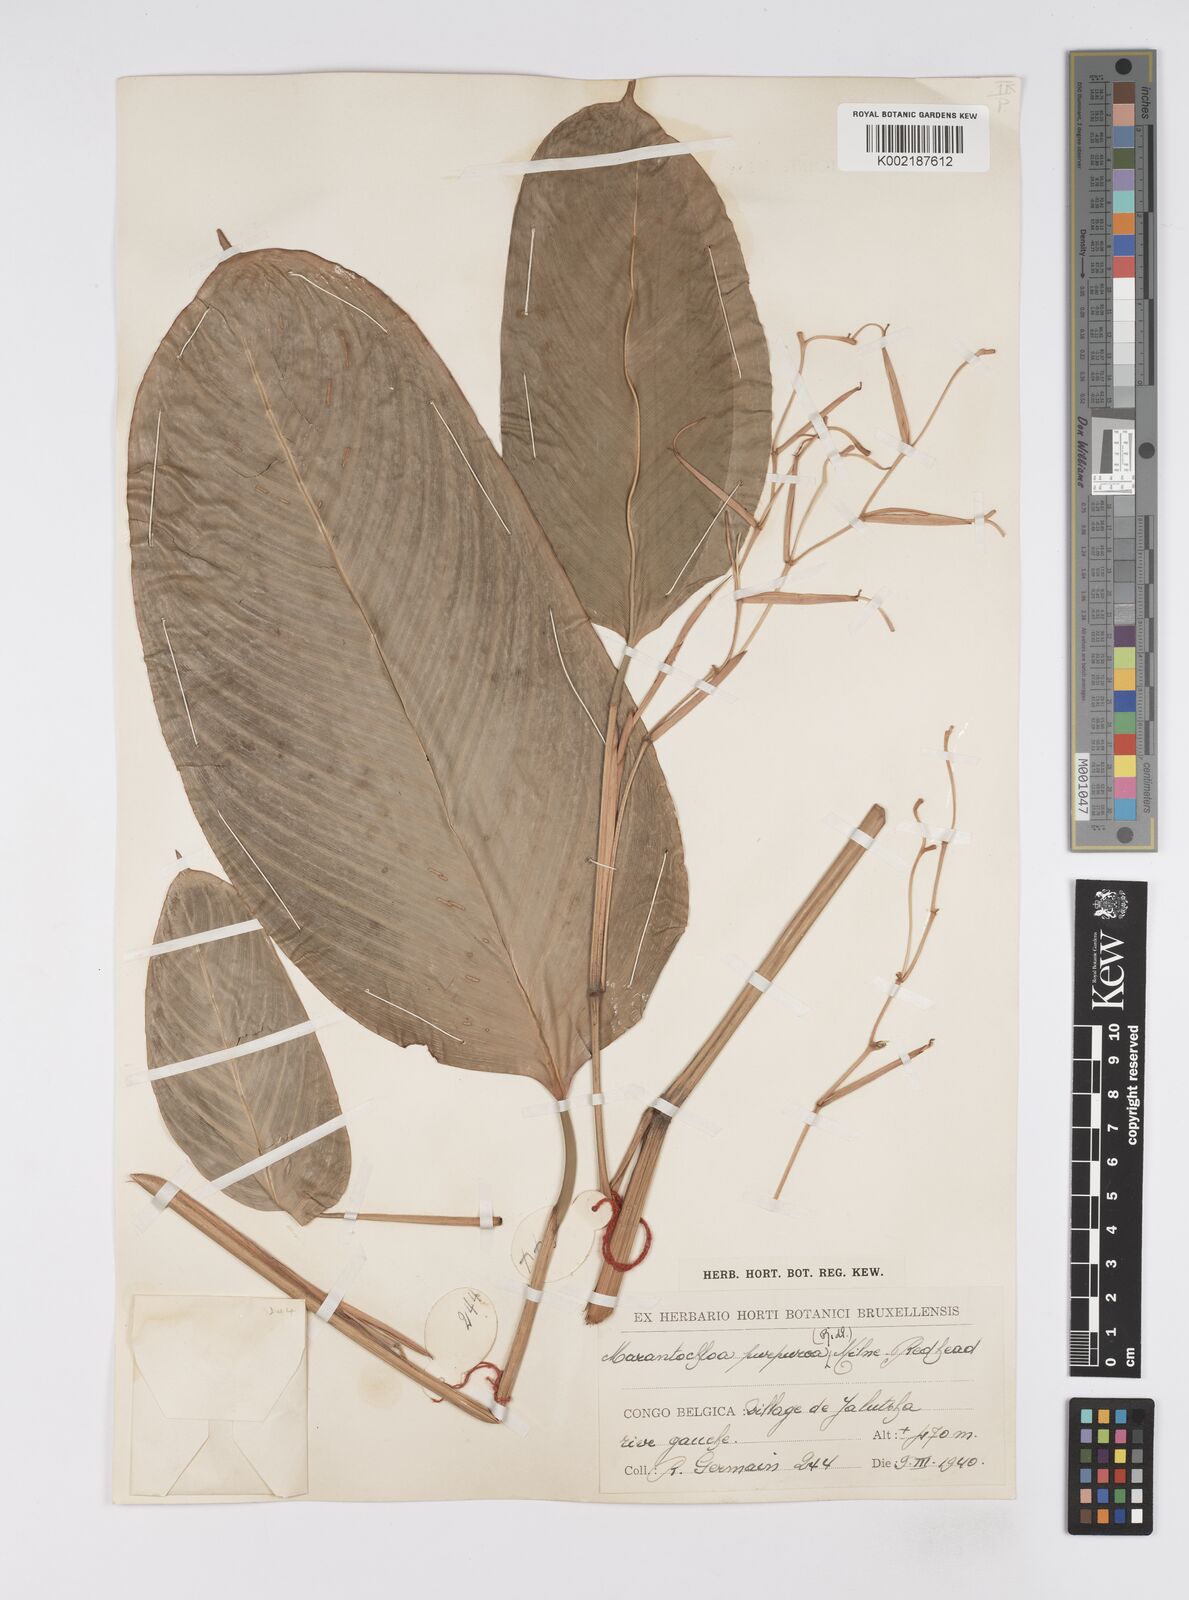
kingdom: Plantae
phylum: Tracheophyta
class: Liliopsida
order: Zingiberales
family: Marantaceae
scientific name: Marantaceae
